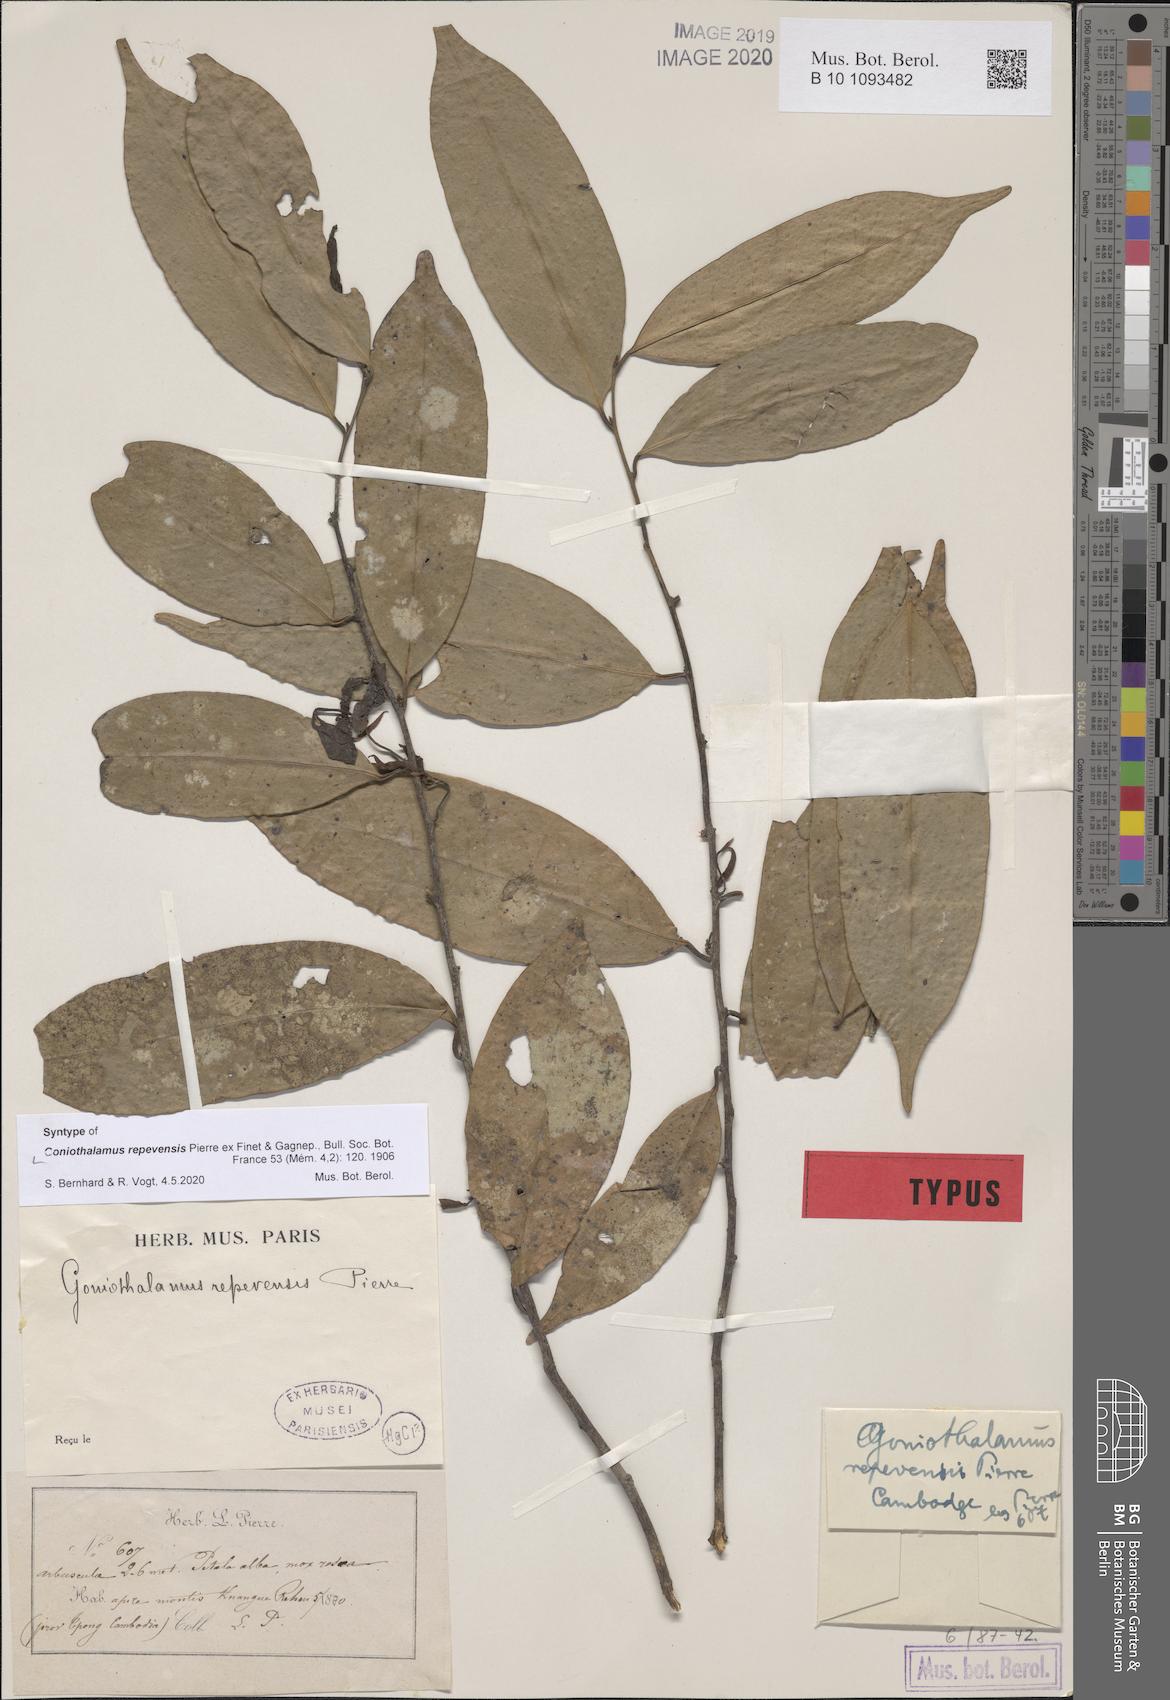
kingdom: Plantae
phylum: Tracheophyta
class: Magnoliopsida
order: Magnoliales
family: Annonaceae
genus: Goniothalamus
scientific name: Goniothalamus repevensis
